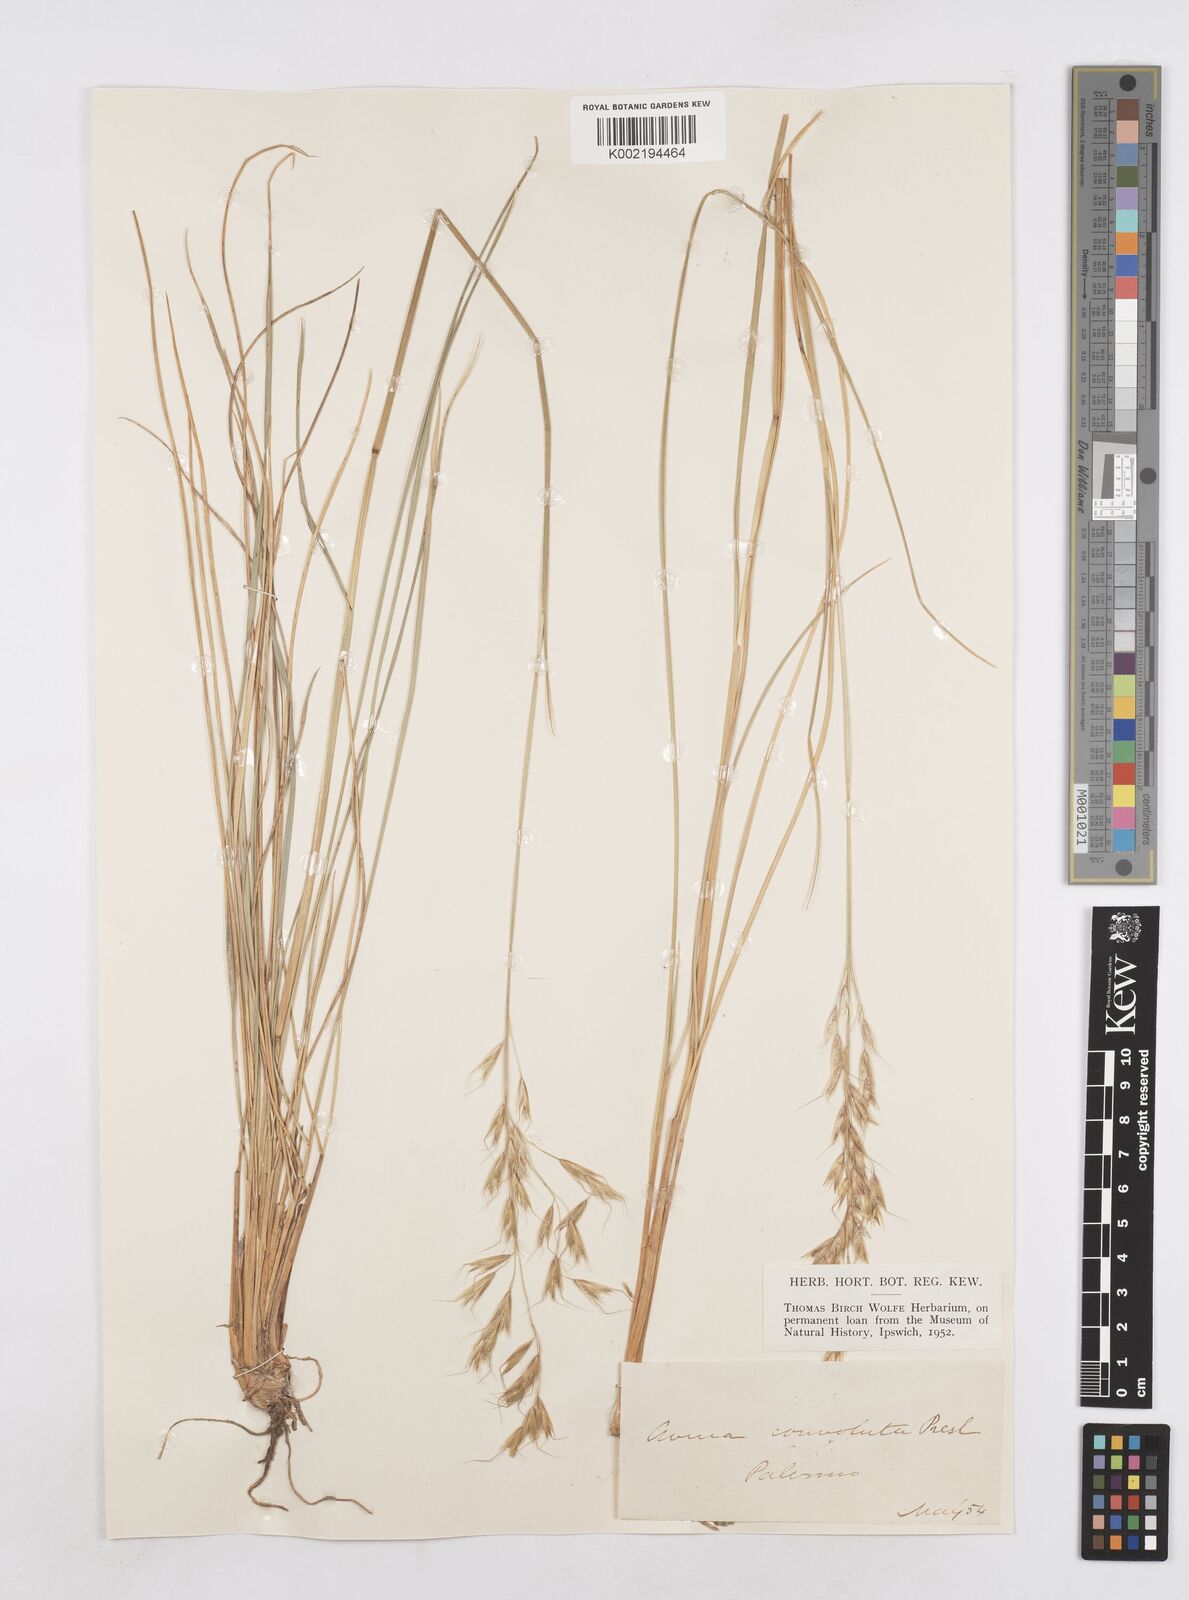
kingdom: Plantae
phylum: Tracheophyta
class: Liliopsida
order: Poales
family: Poaceae
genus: Helictotrichon
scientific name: Helictotrichon convolutum
